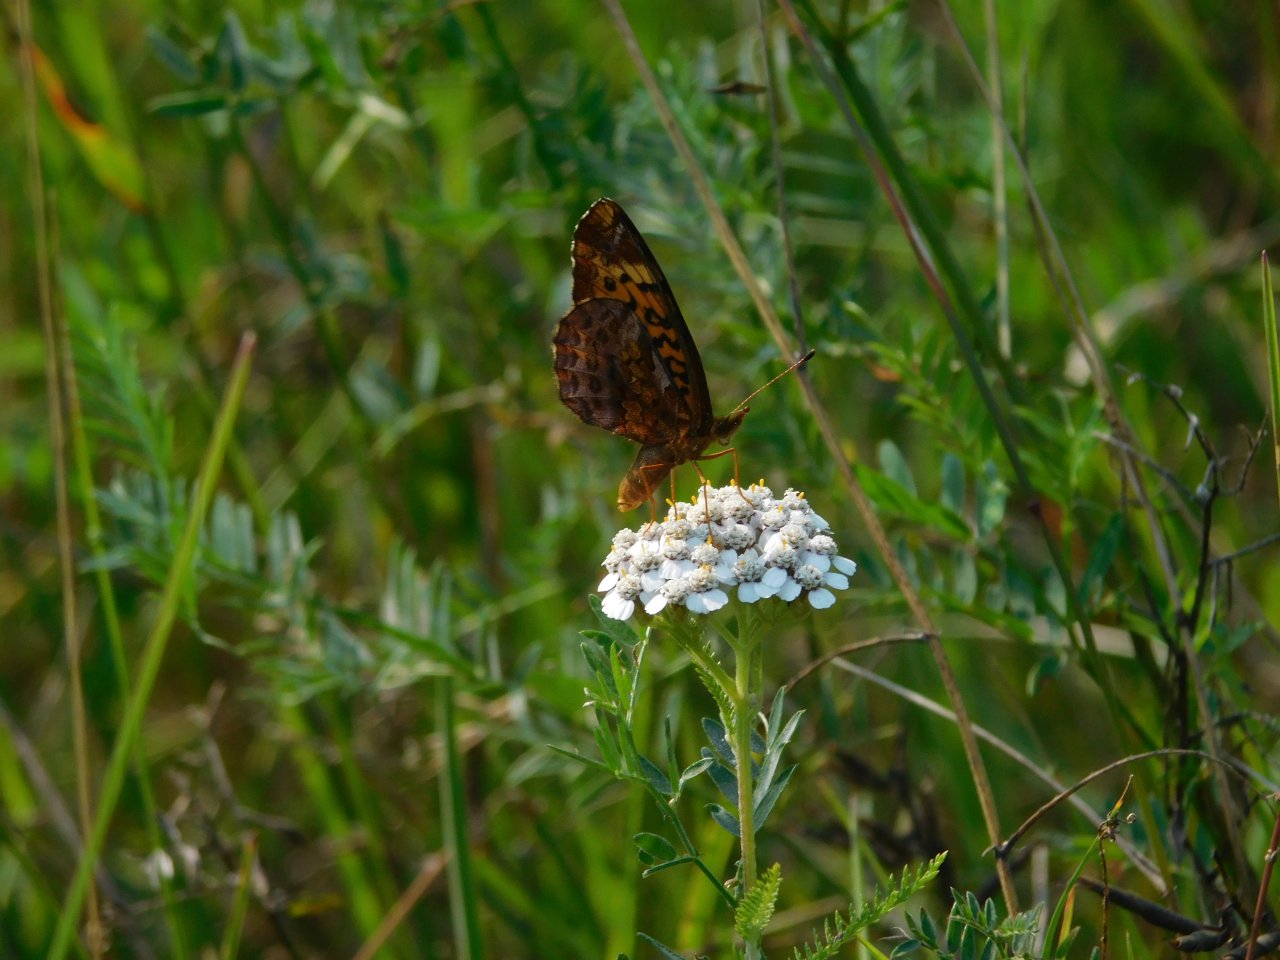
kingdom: Animalia
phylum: Arthropoda
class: Insecta
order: Lepidoptera
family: Nymphalidae
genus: Clossiana
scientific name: Clossiana toddi
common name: Meadow Fritillary
